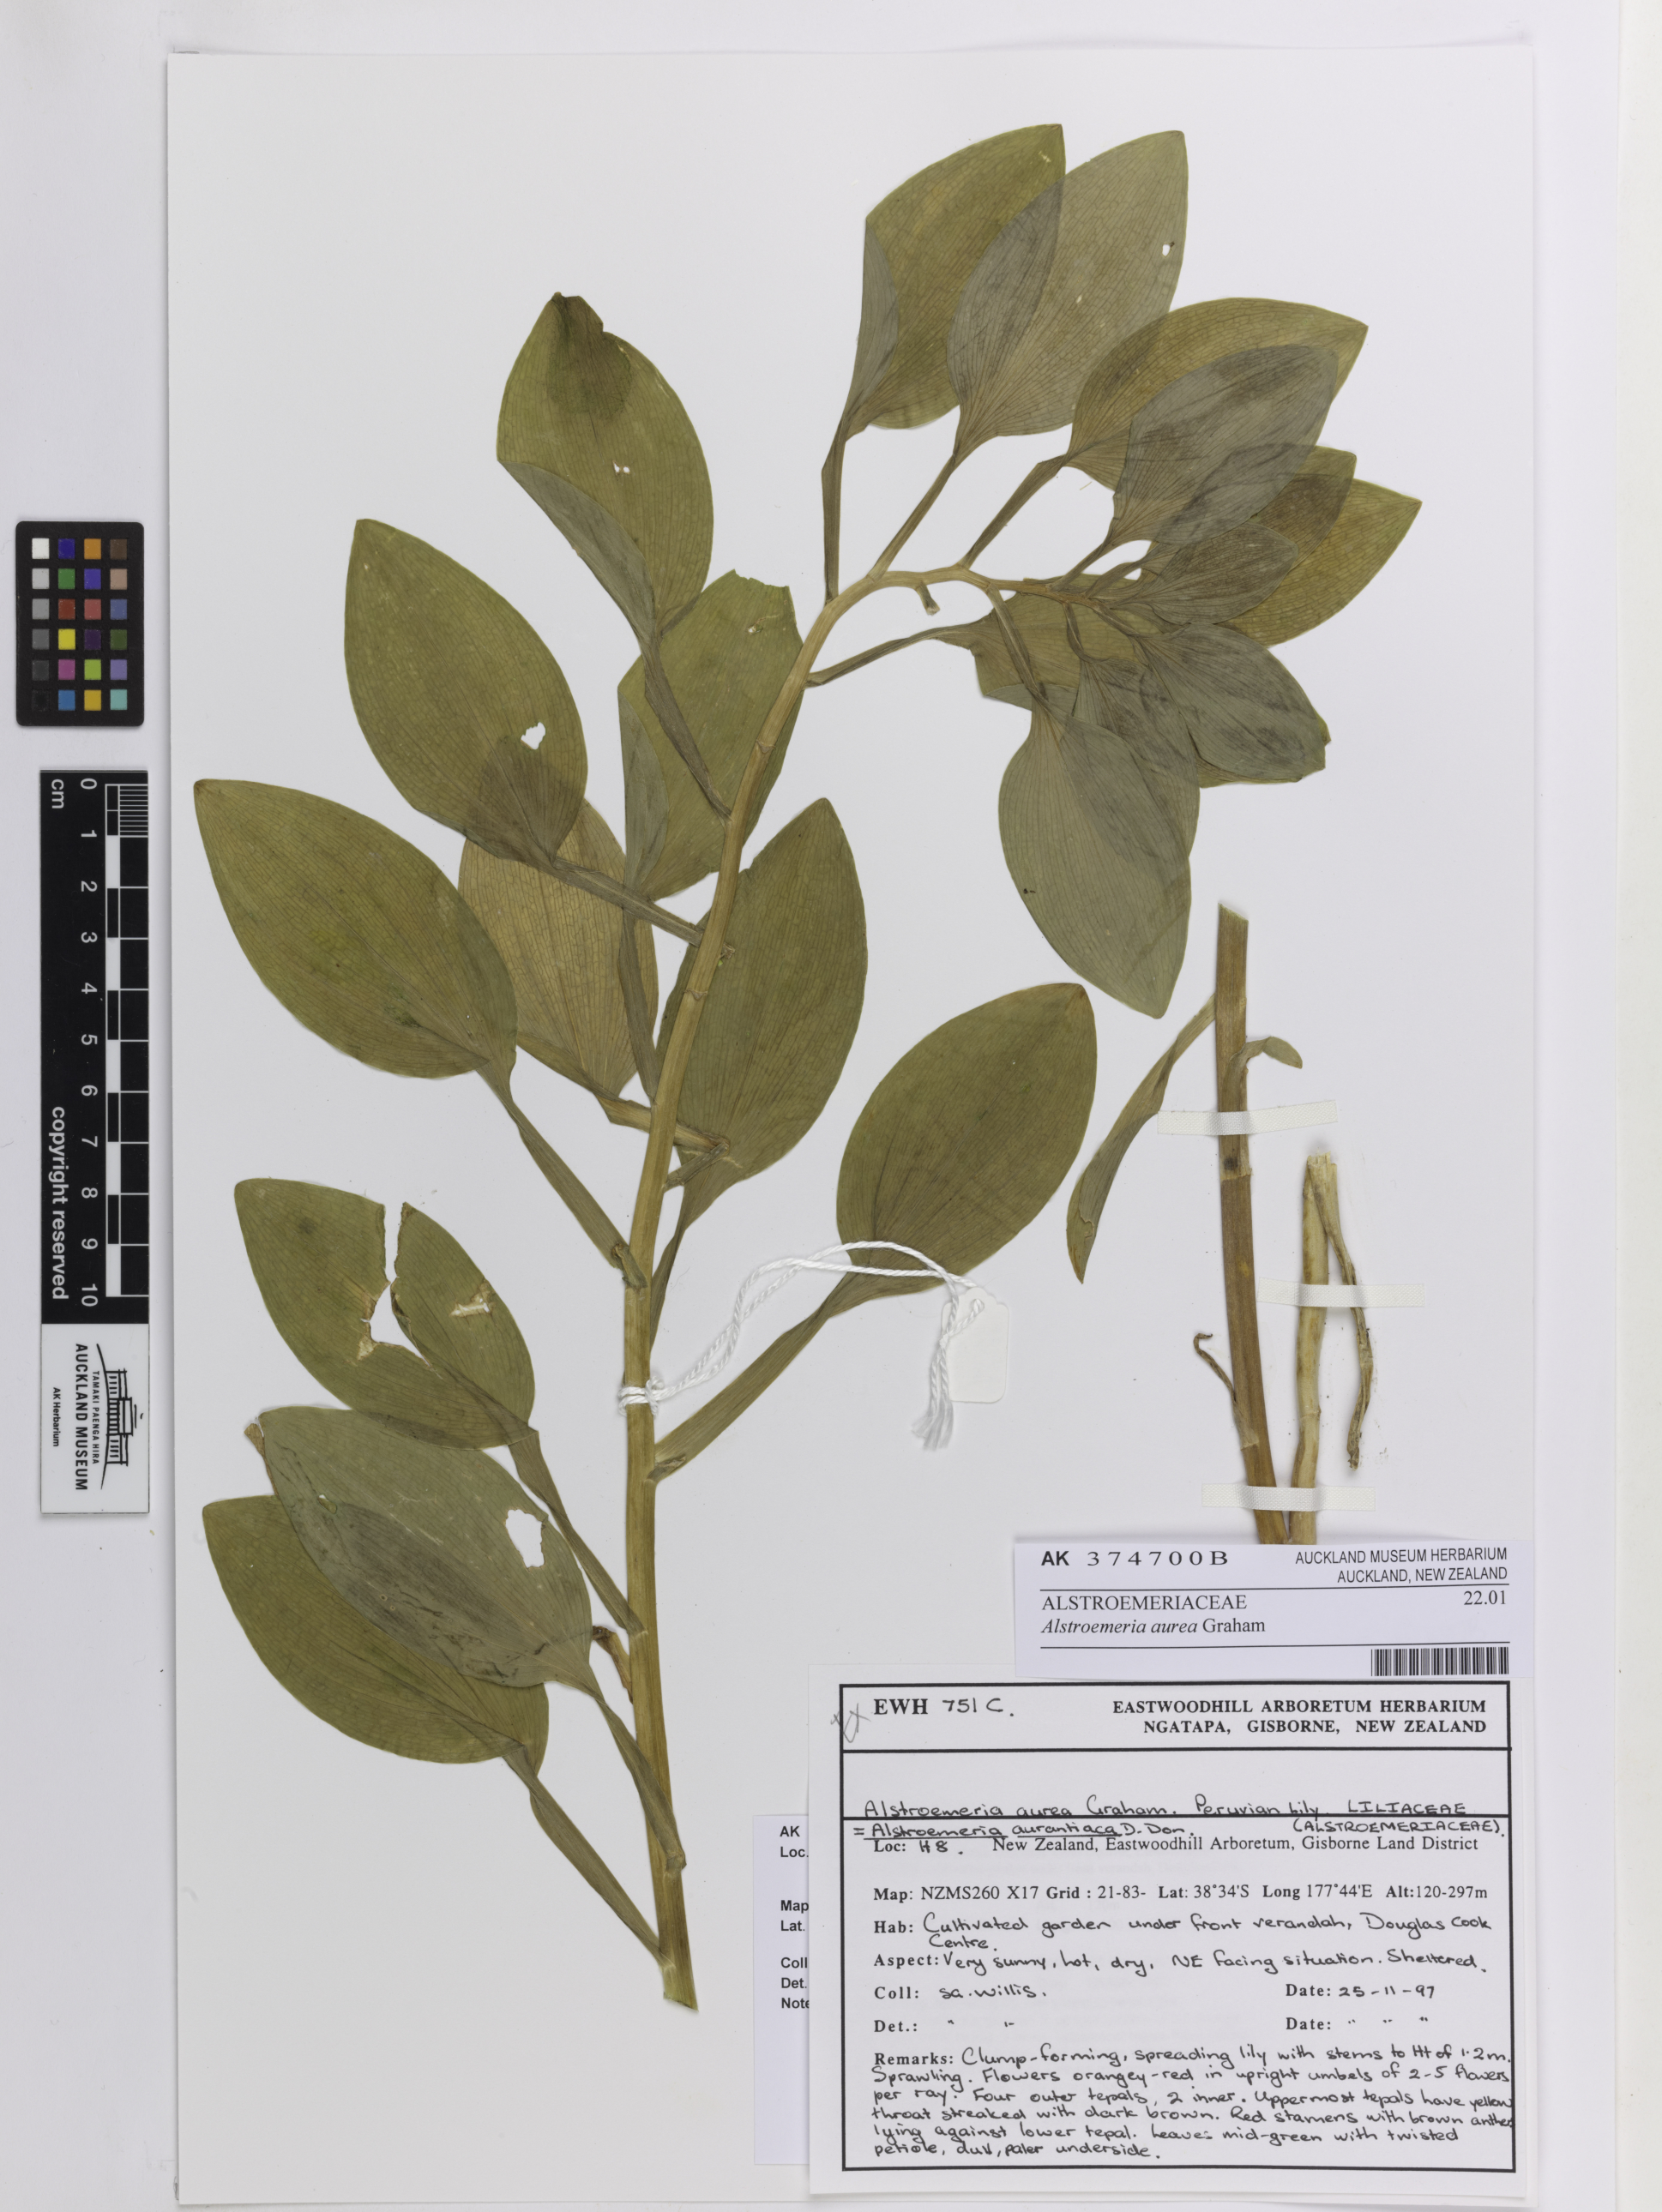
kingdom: Plantae
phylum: Tracheophyta
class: Liliopsida
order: Liliales
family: Alstroemeriaceae
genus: Alstroemeria
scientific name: Alstroemeria aurea
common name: Peruvian lily
